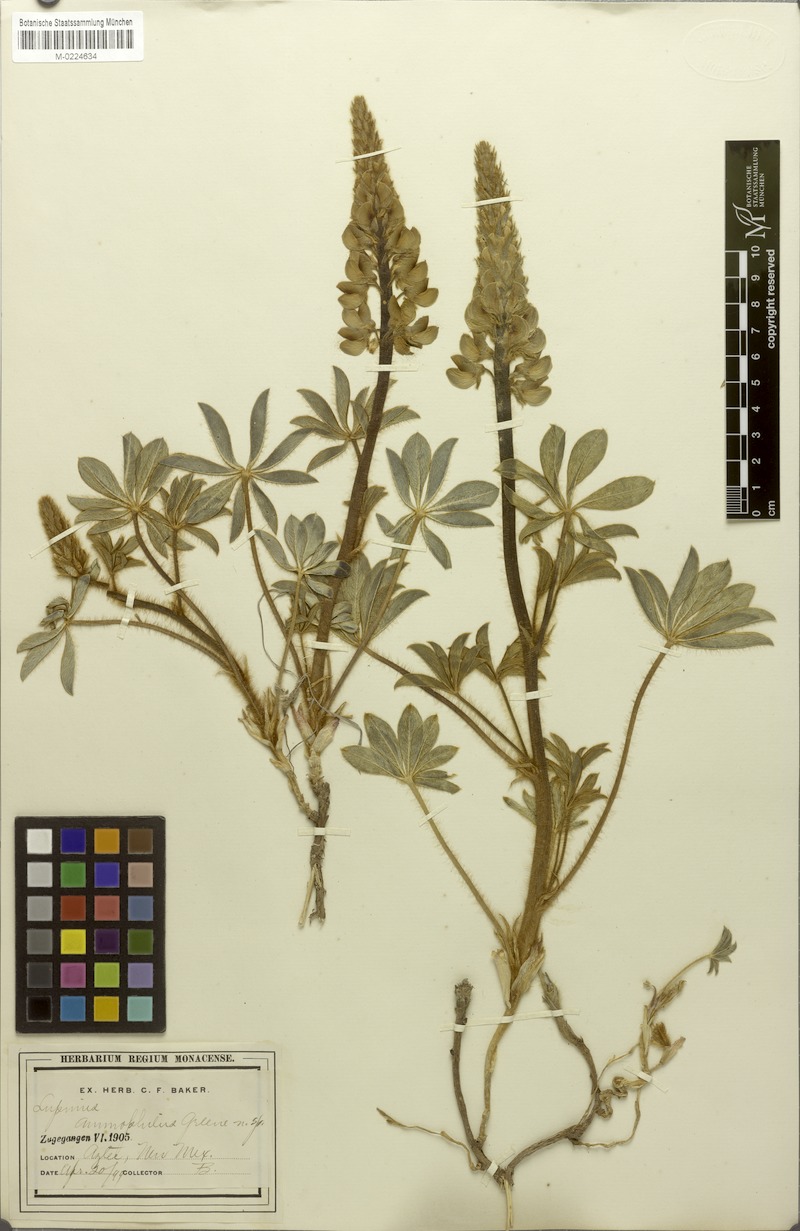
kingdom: Plantae
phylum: Tracheophyta
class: Magnoliopsida
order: Fabales
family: Fabaceae
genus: Lupinus
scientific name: Lupinus ammophilus
